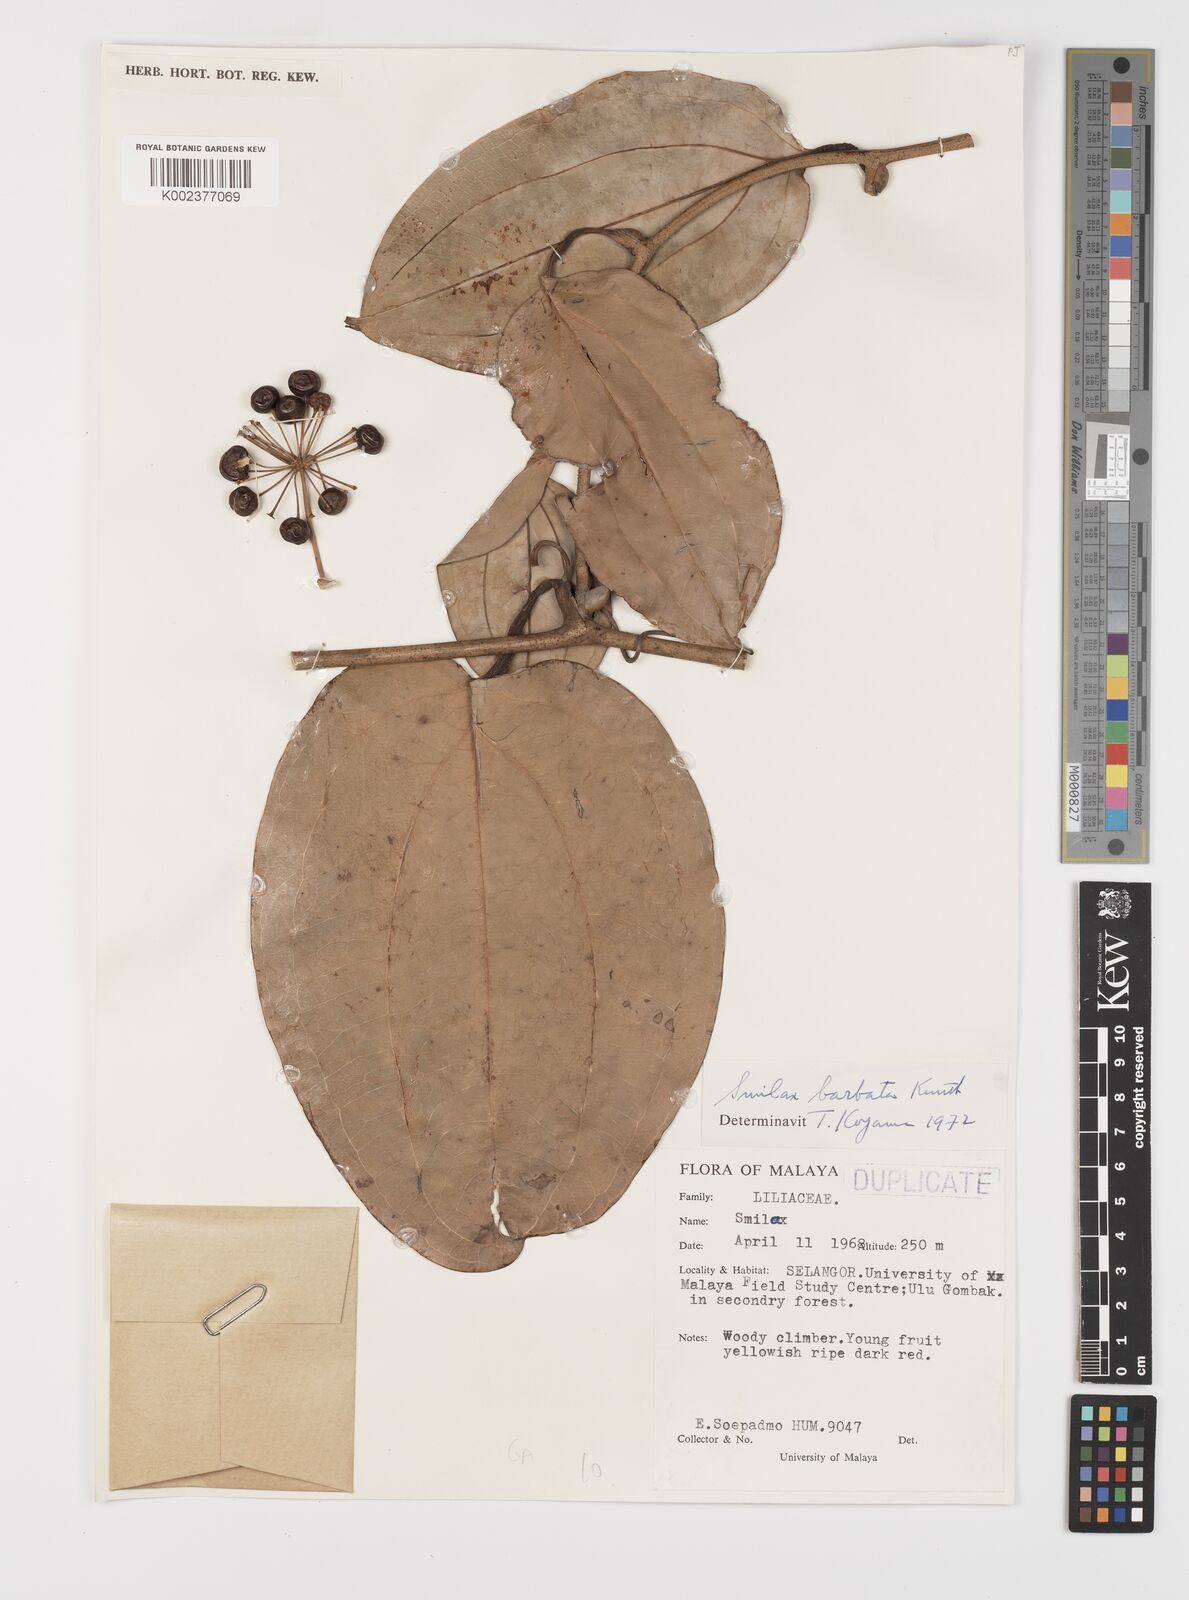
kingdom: Plantae
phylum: Tracheophyta
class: Liliopsida
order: Liliales
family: Smilacaceae
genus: Smilax
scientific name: Smilax bracteata
